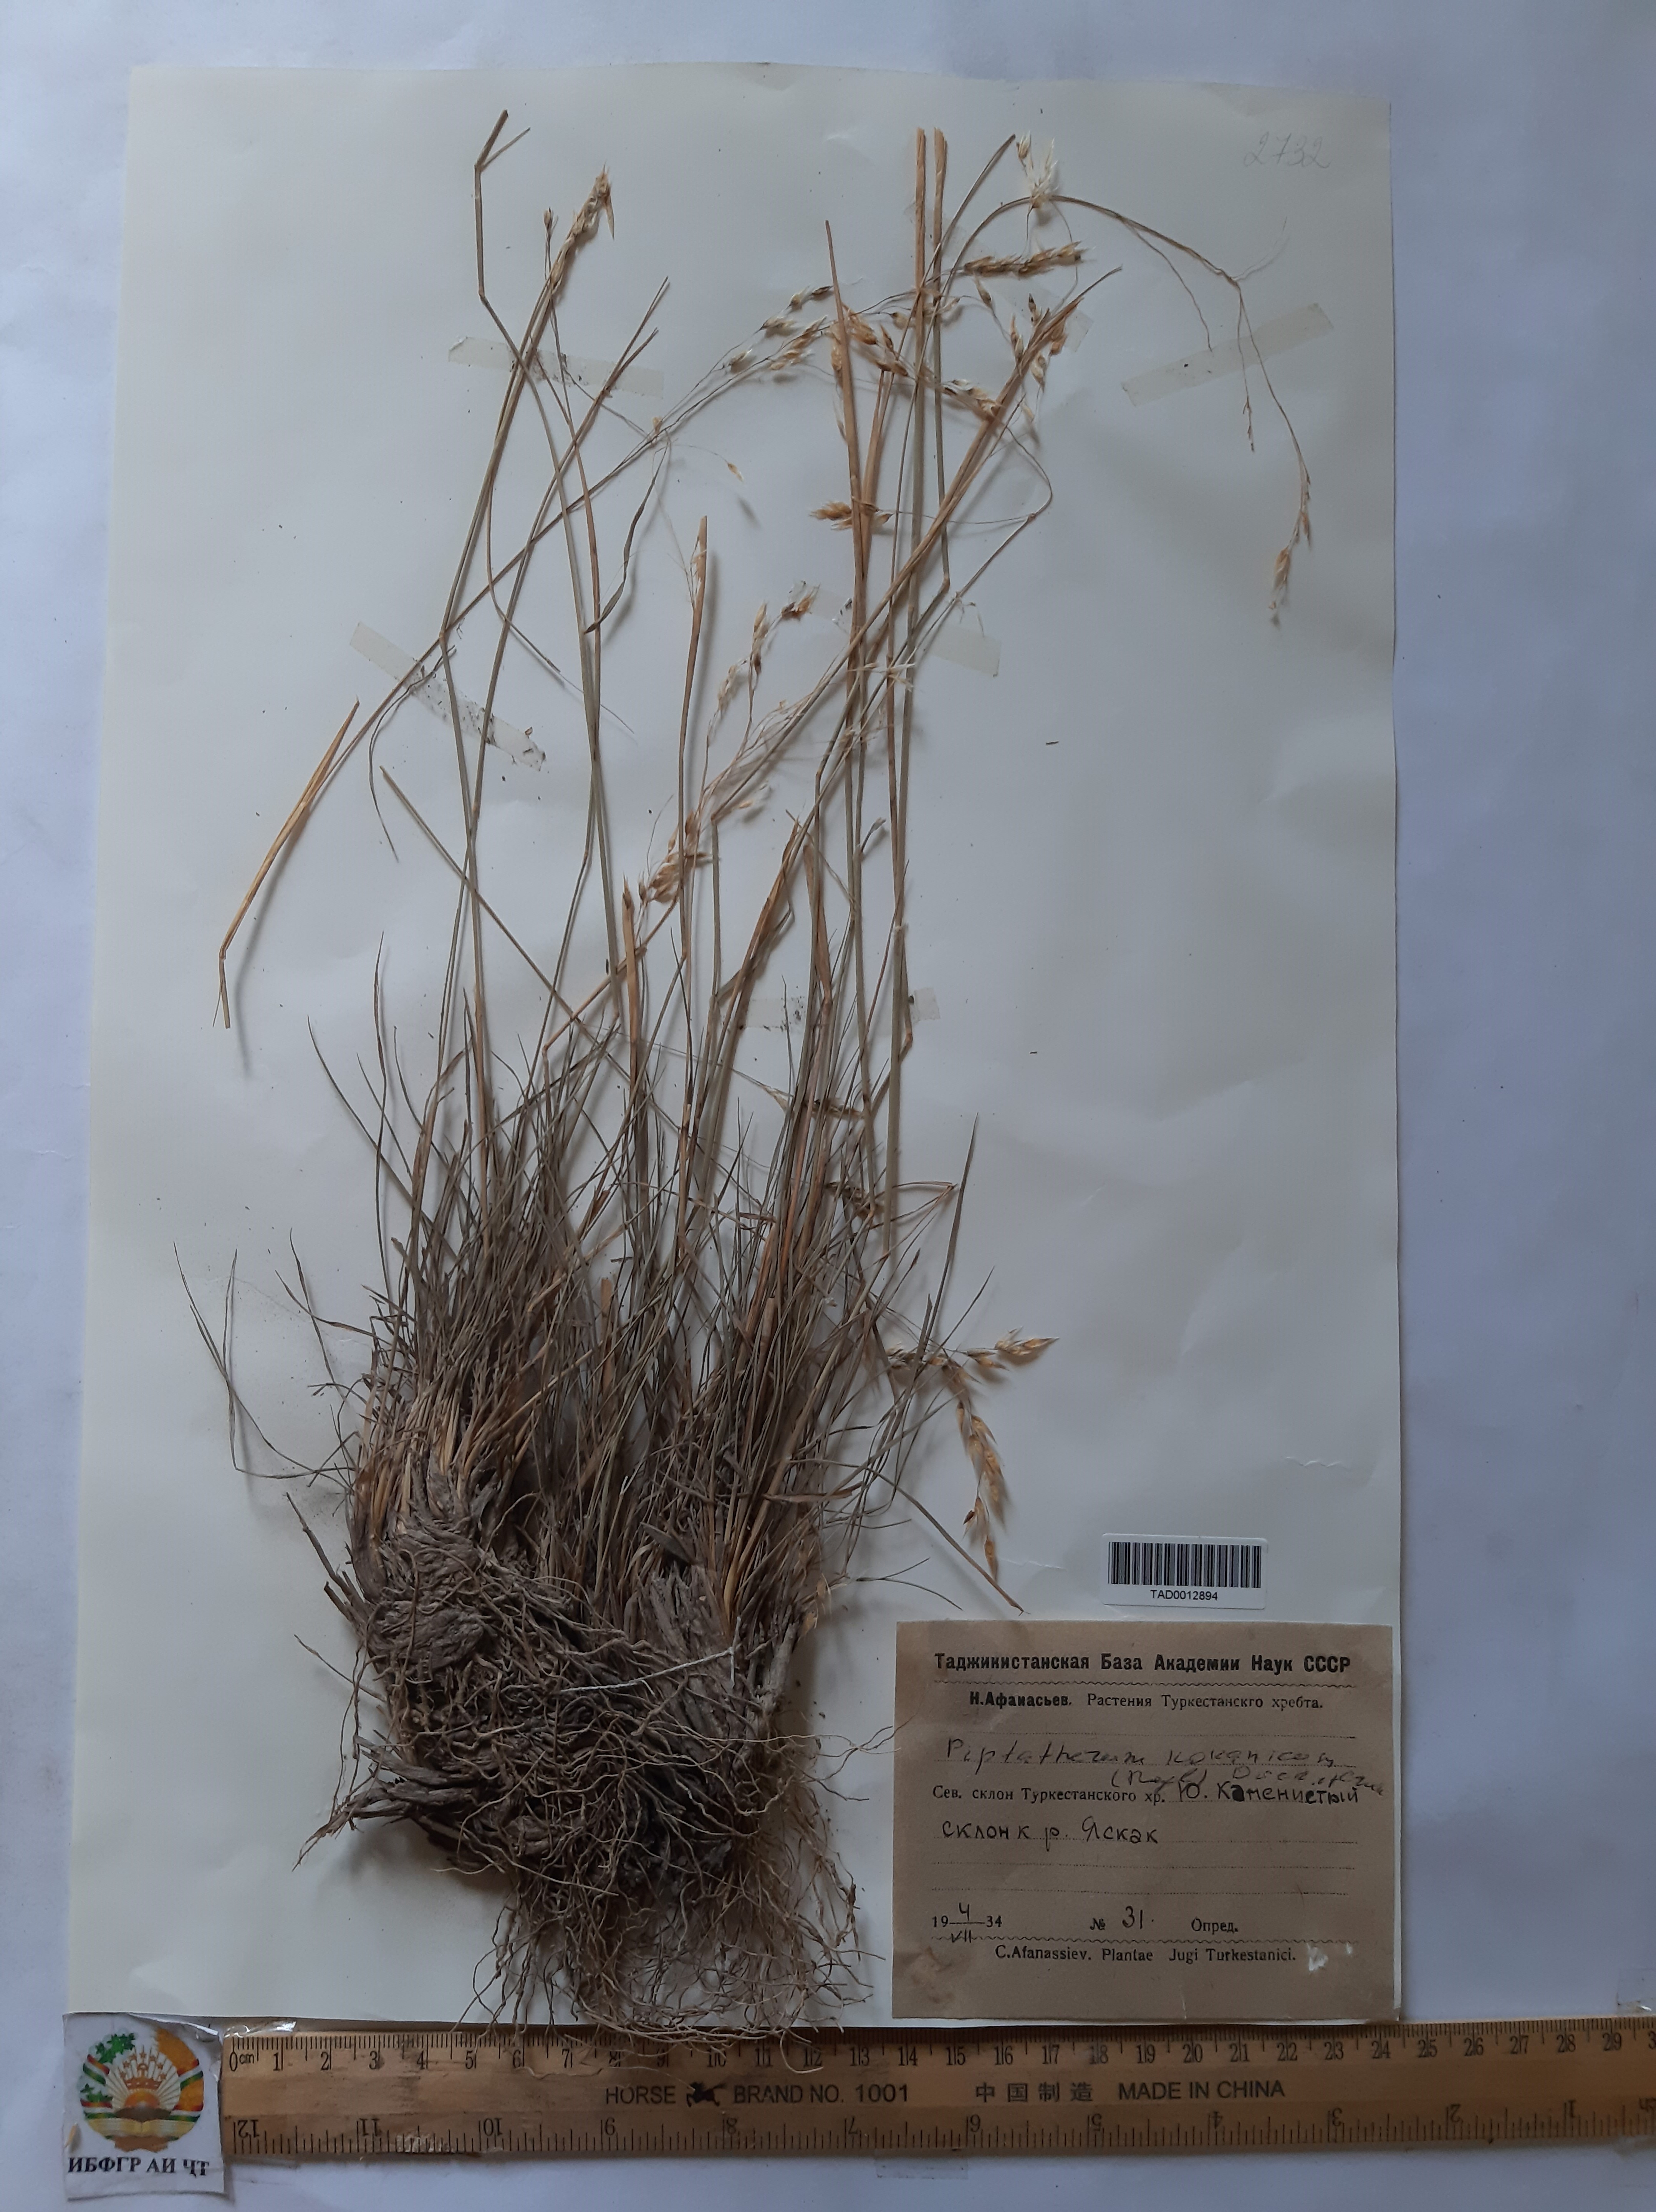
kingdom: Plantae
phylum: Tracheophyta
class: Liliopsida
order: Poales
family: Poaceae
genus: Piptatherum
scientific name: Piptatherum songaricum
